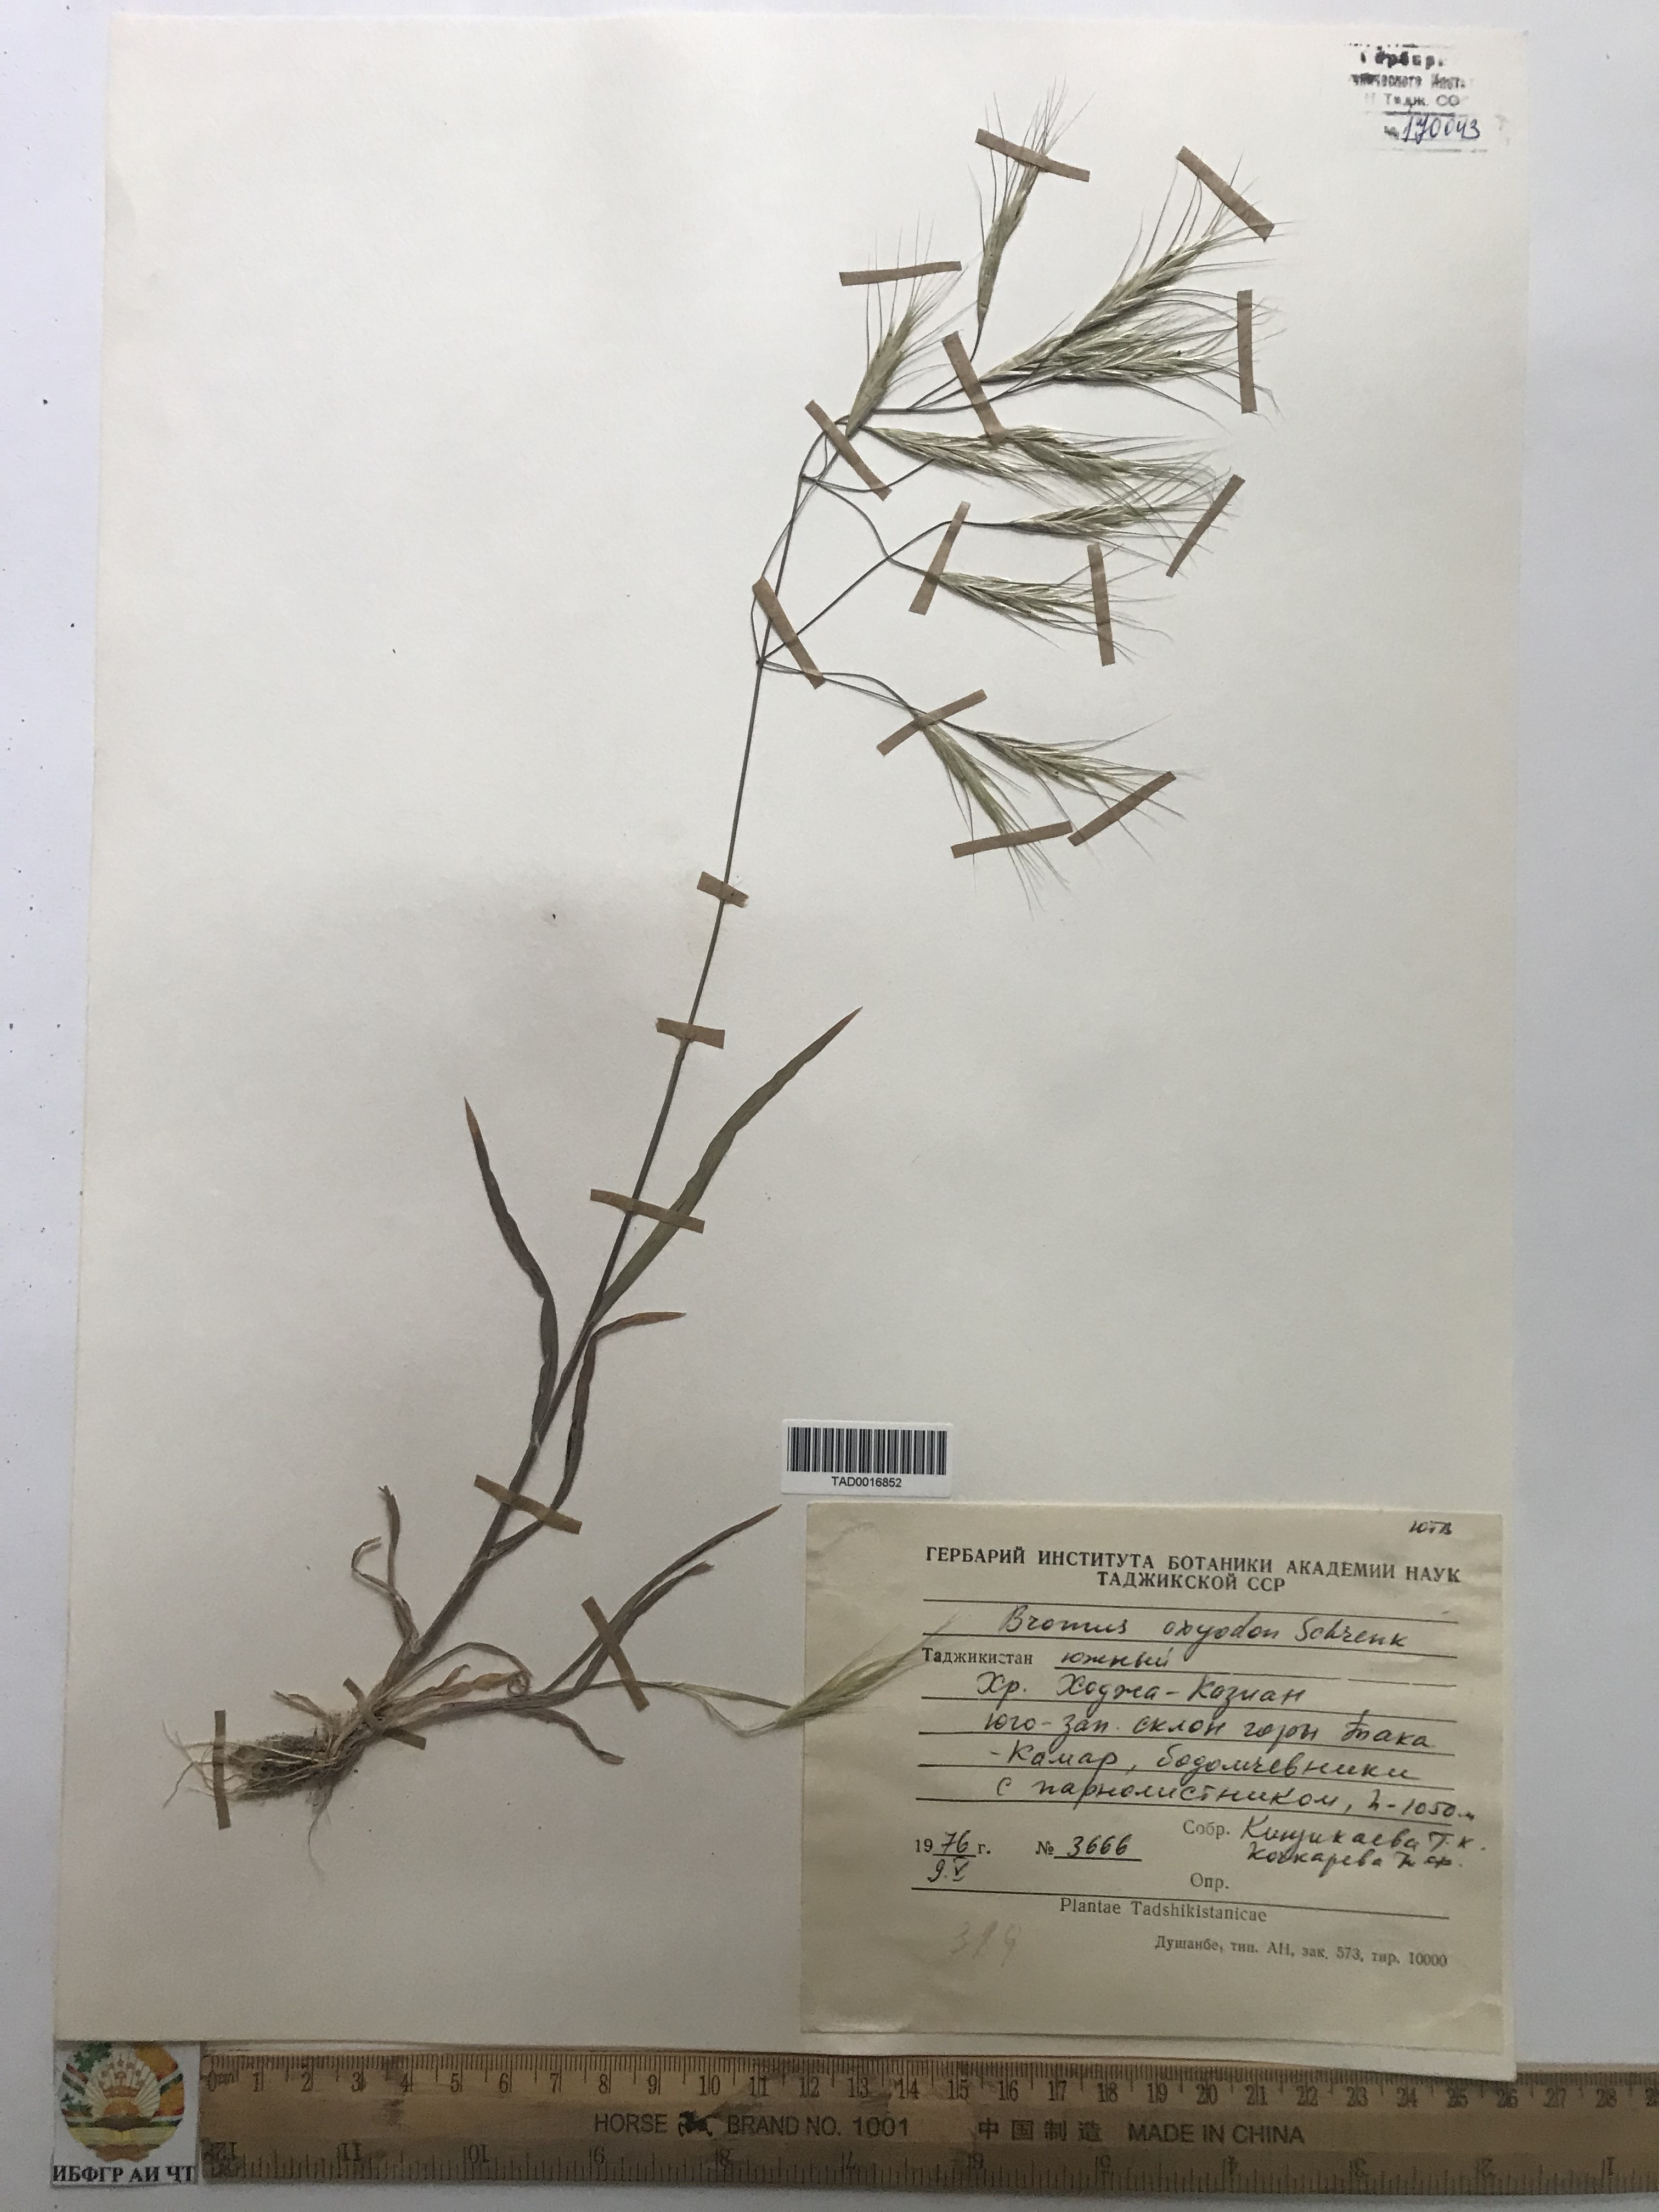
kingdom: Plantae
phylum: Tracheophyta
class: Liliopsida
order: Poales
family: Poaceae
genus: Bromus
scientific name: Bromus oxyodon
